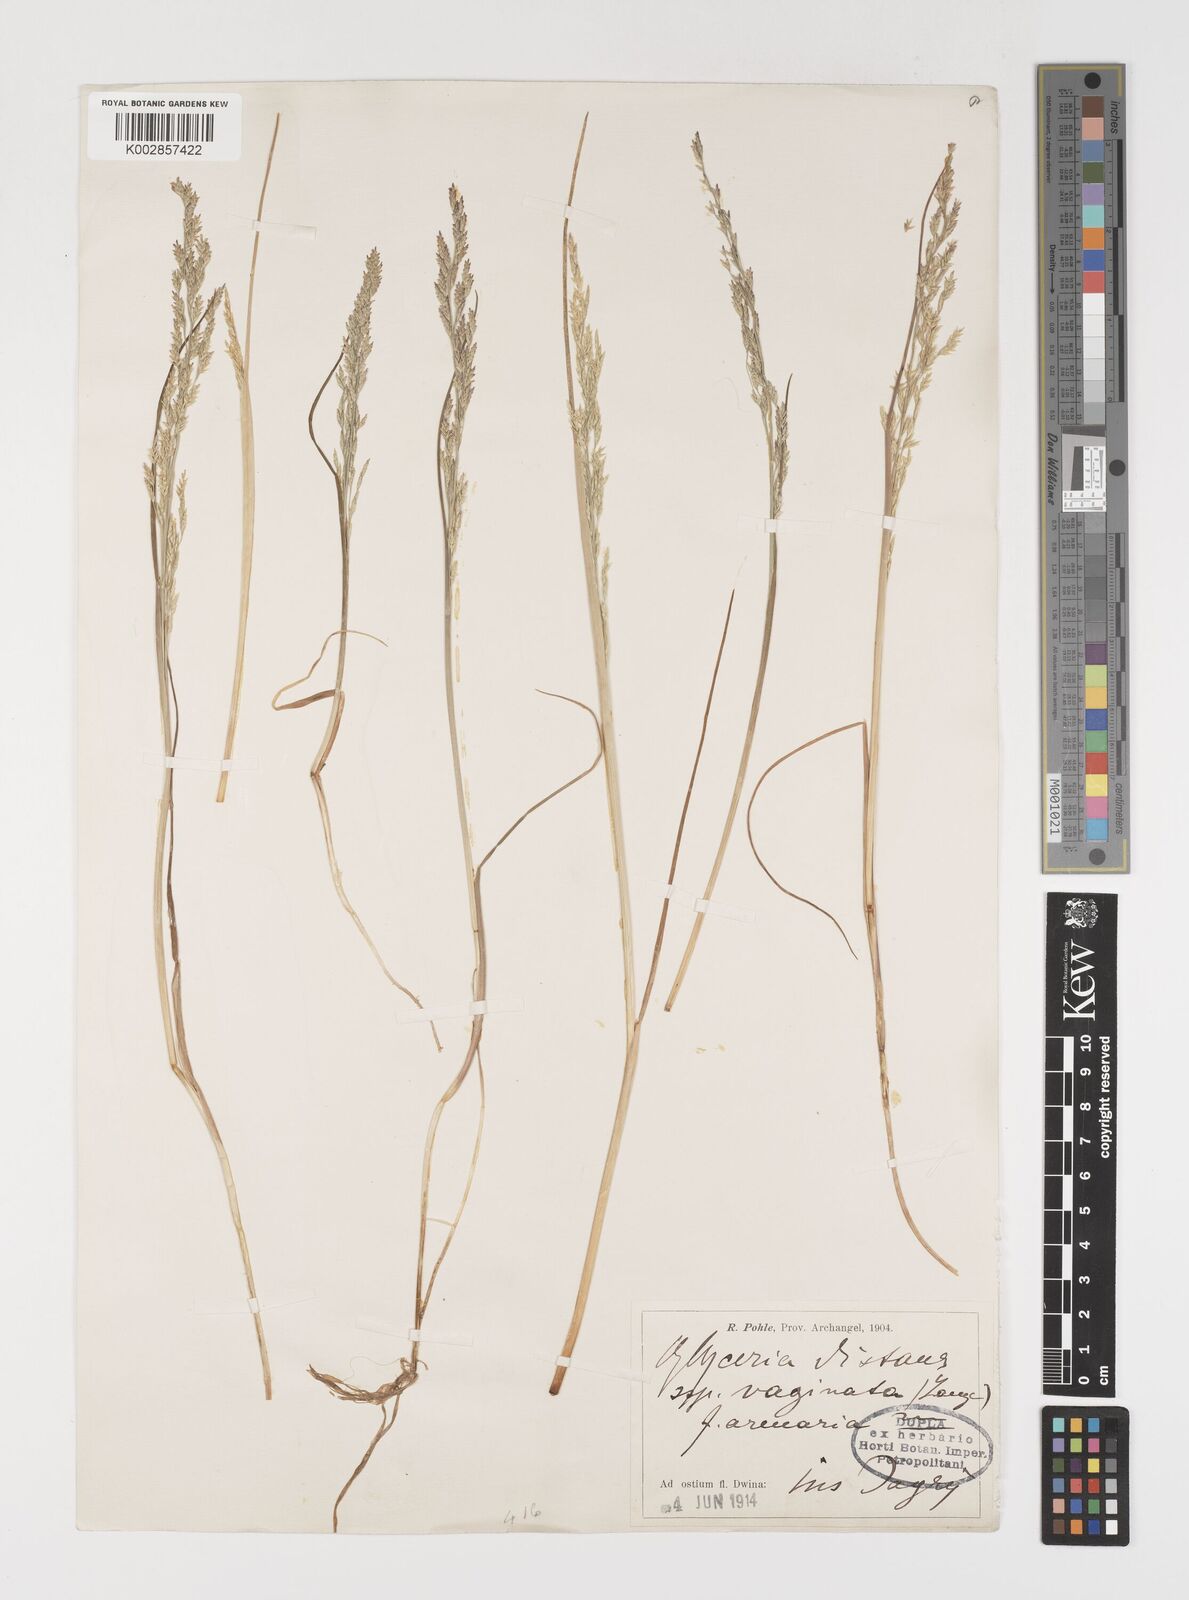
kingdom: Plantae
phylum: Tracheophyta
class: Liliopsida
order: Poales
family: Poaceae
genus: Puccinellia
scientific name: Puccinellia distans
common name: Weeping alkaligrass
